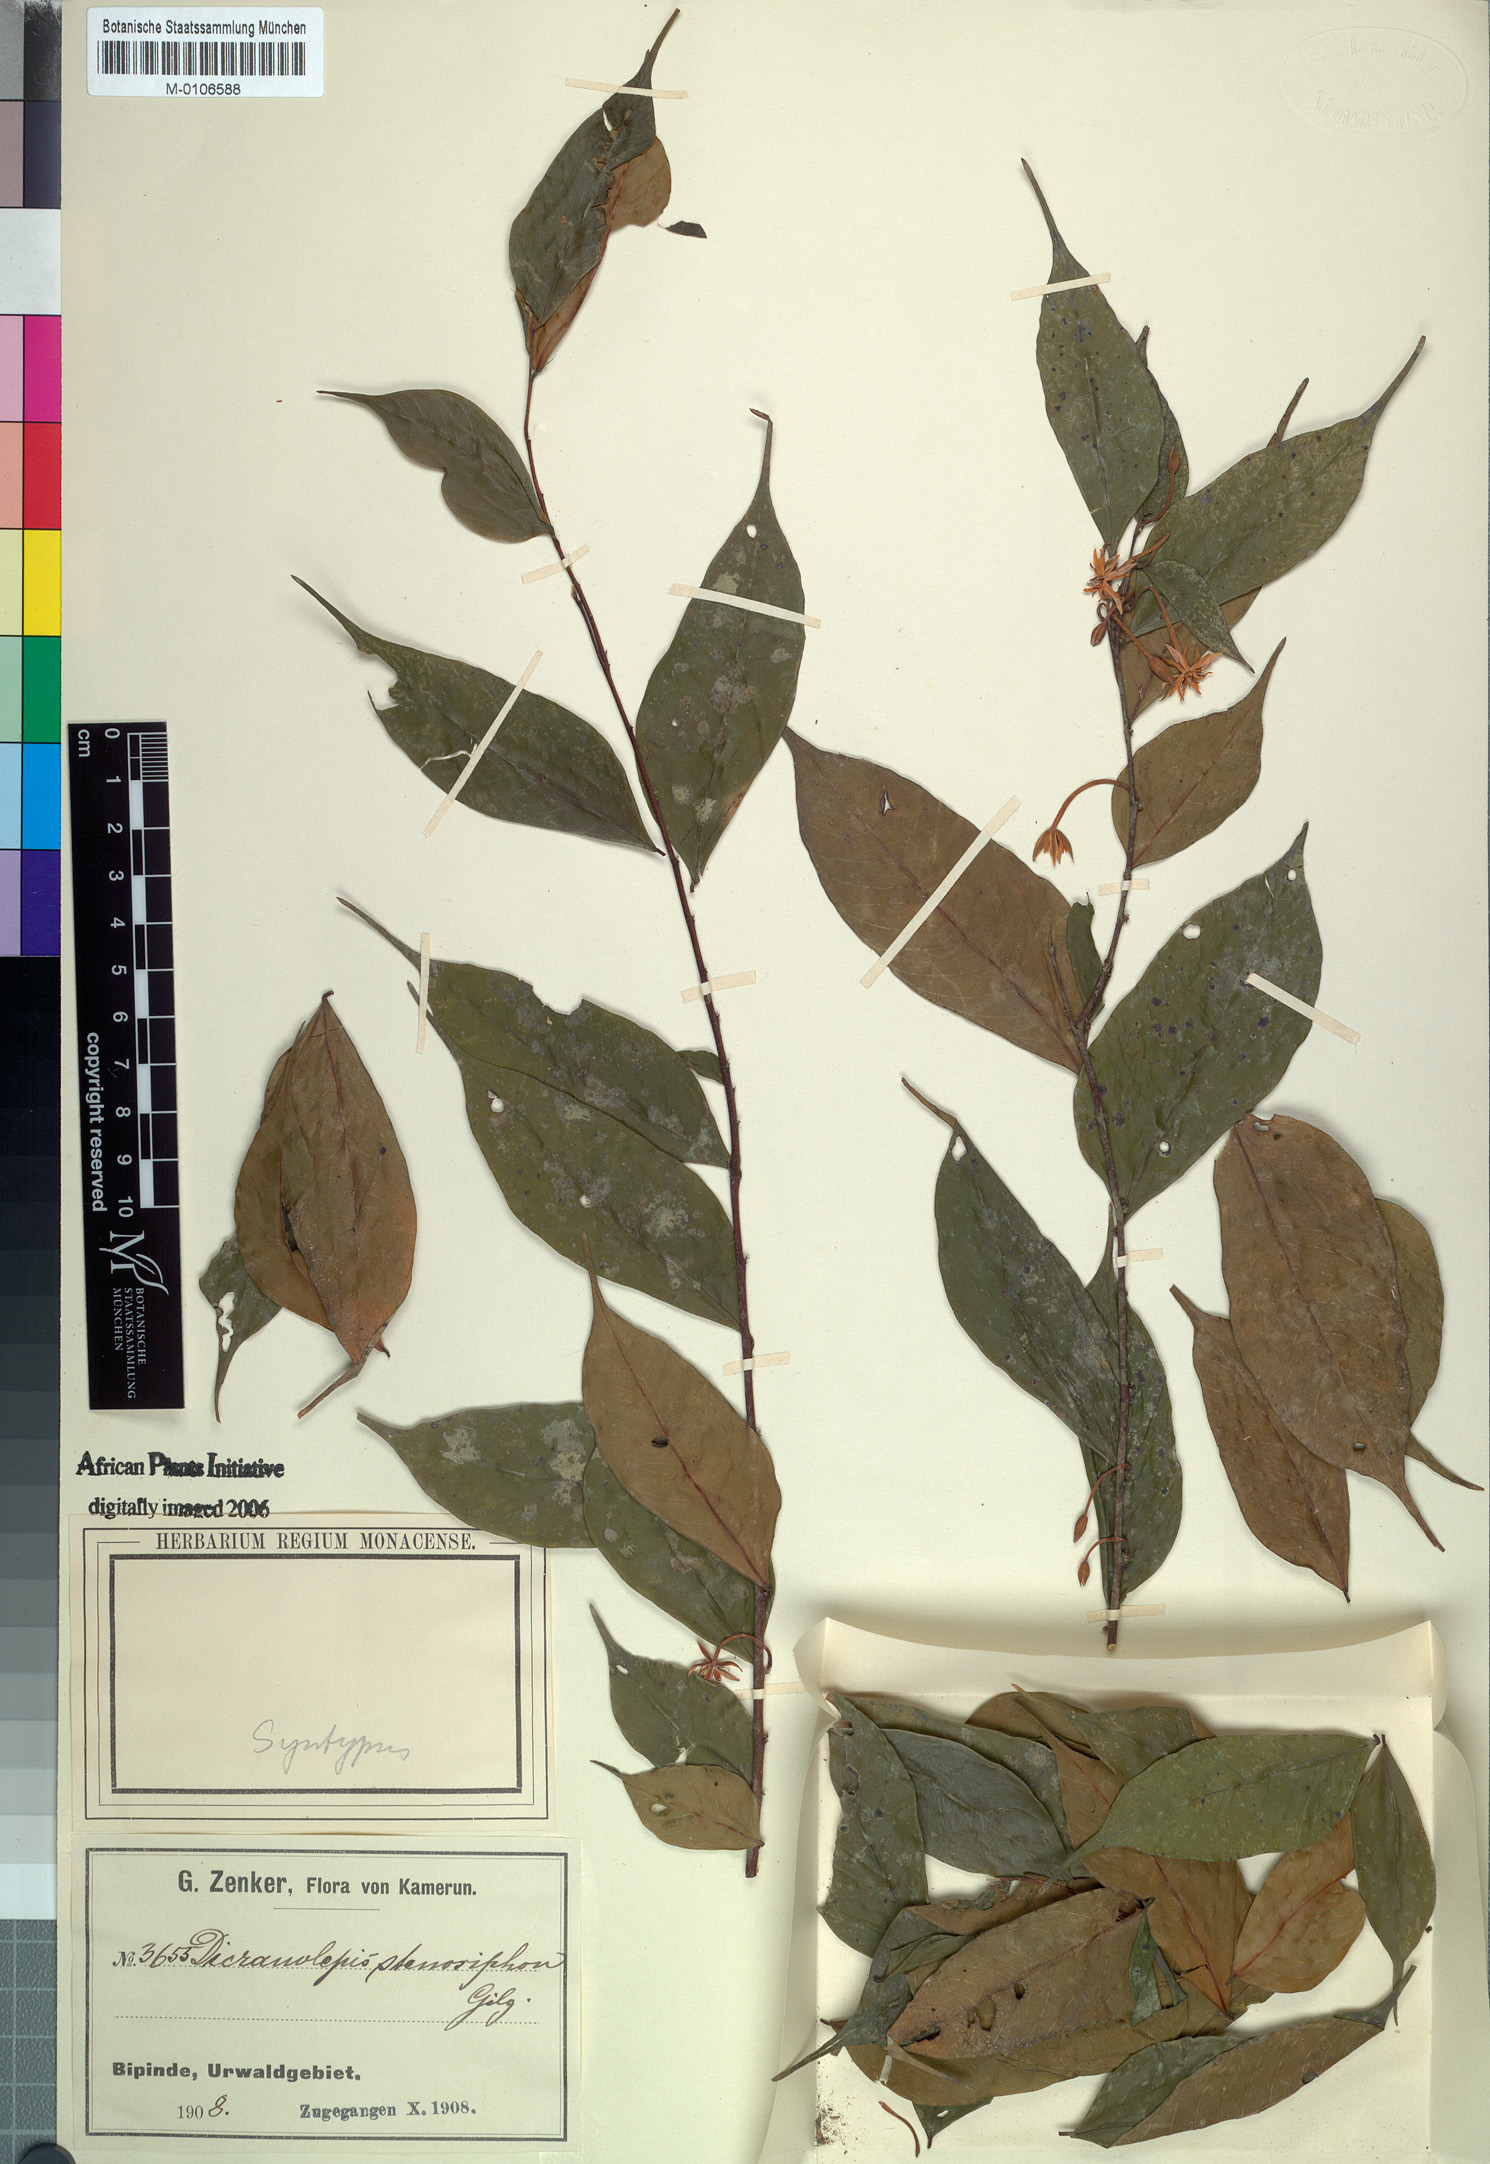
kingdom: Plantae
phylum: Tracheophyta
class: Magnoliopsida
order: Malvales
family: Thymelaeaceae
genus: Dicranolepis
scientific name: Dicranolepis disticha
